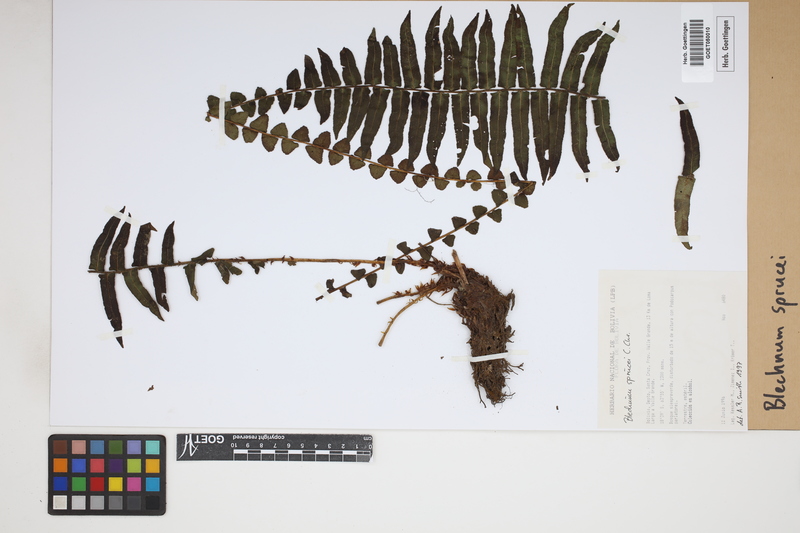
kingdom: Plantae
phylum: Tracheophyta
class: Polypodiopsida
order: Polypodiales
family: Blechnaceae
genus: Cranfillia
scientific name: Cranfillia caudata
